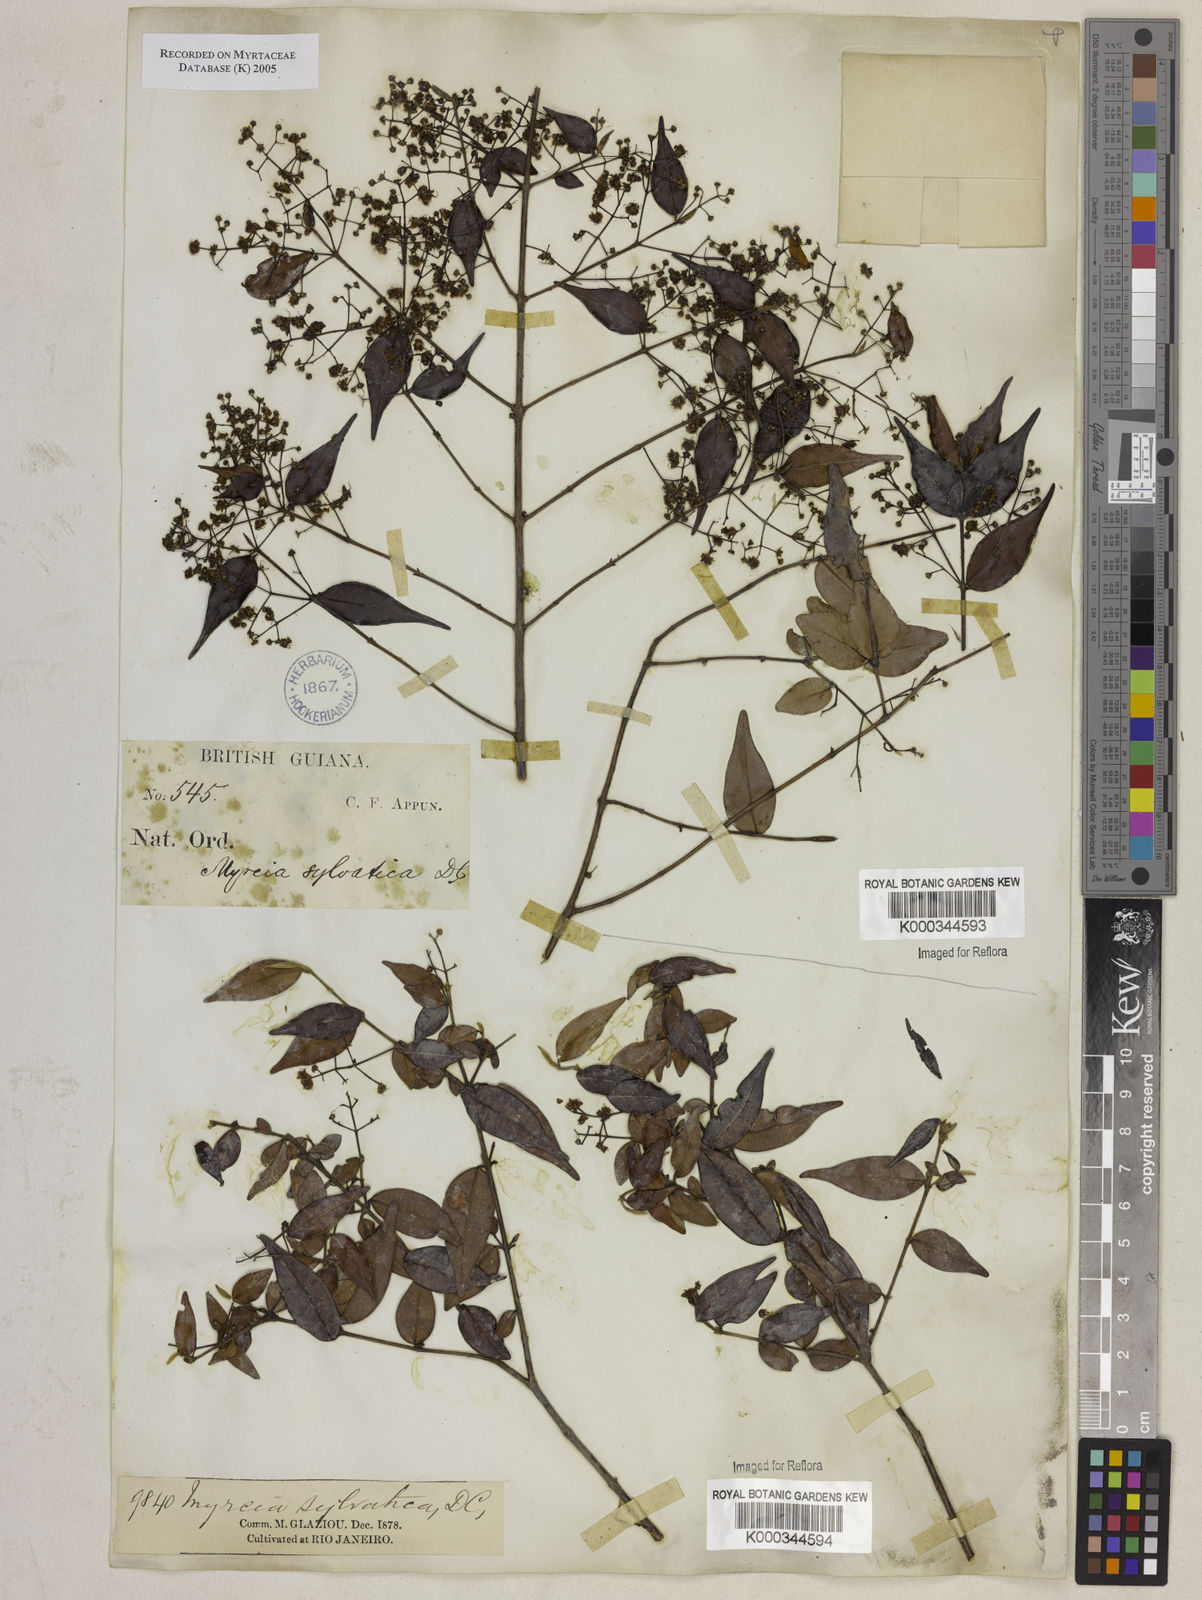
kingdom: Plantae
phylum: Tracheophyta
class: Magnoliopsida
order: Myrtales
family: Myrtaceae
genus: Myrcia
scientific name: Myrcia sylvatica
